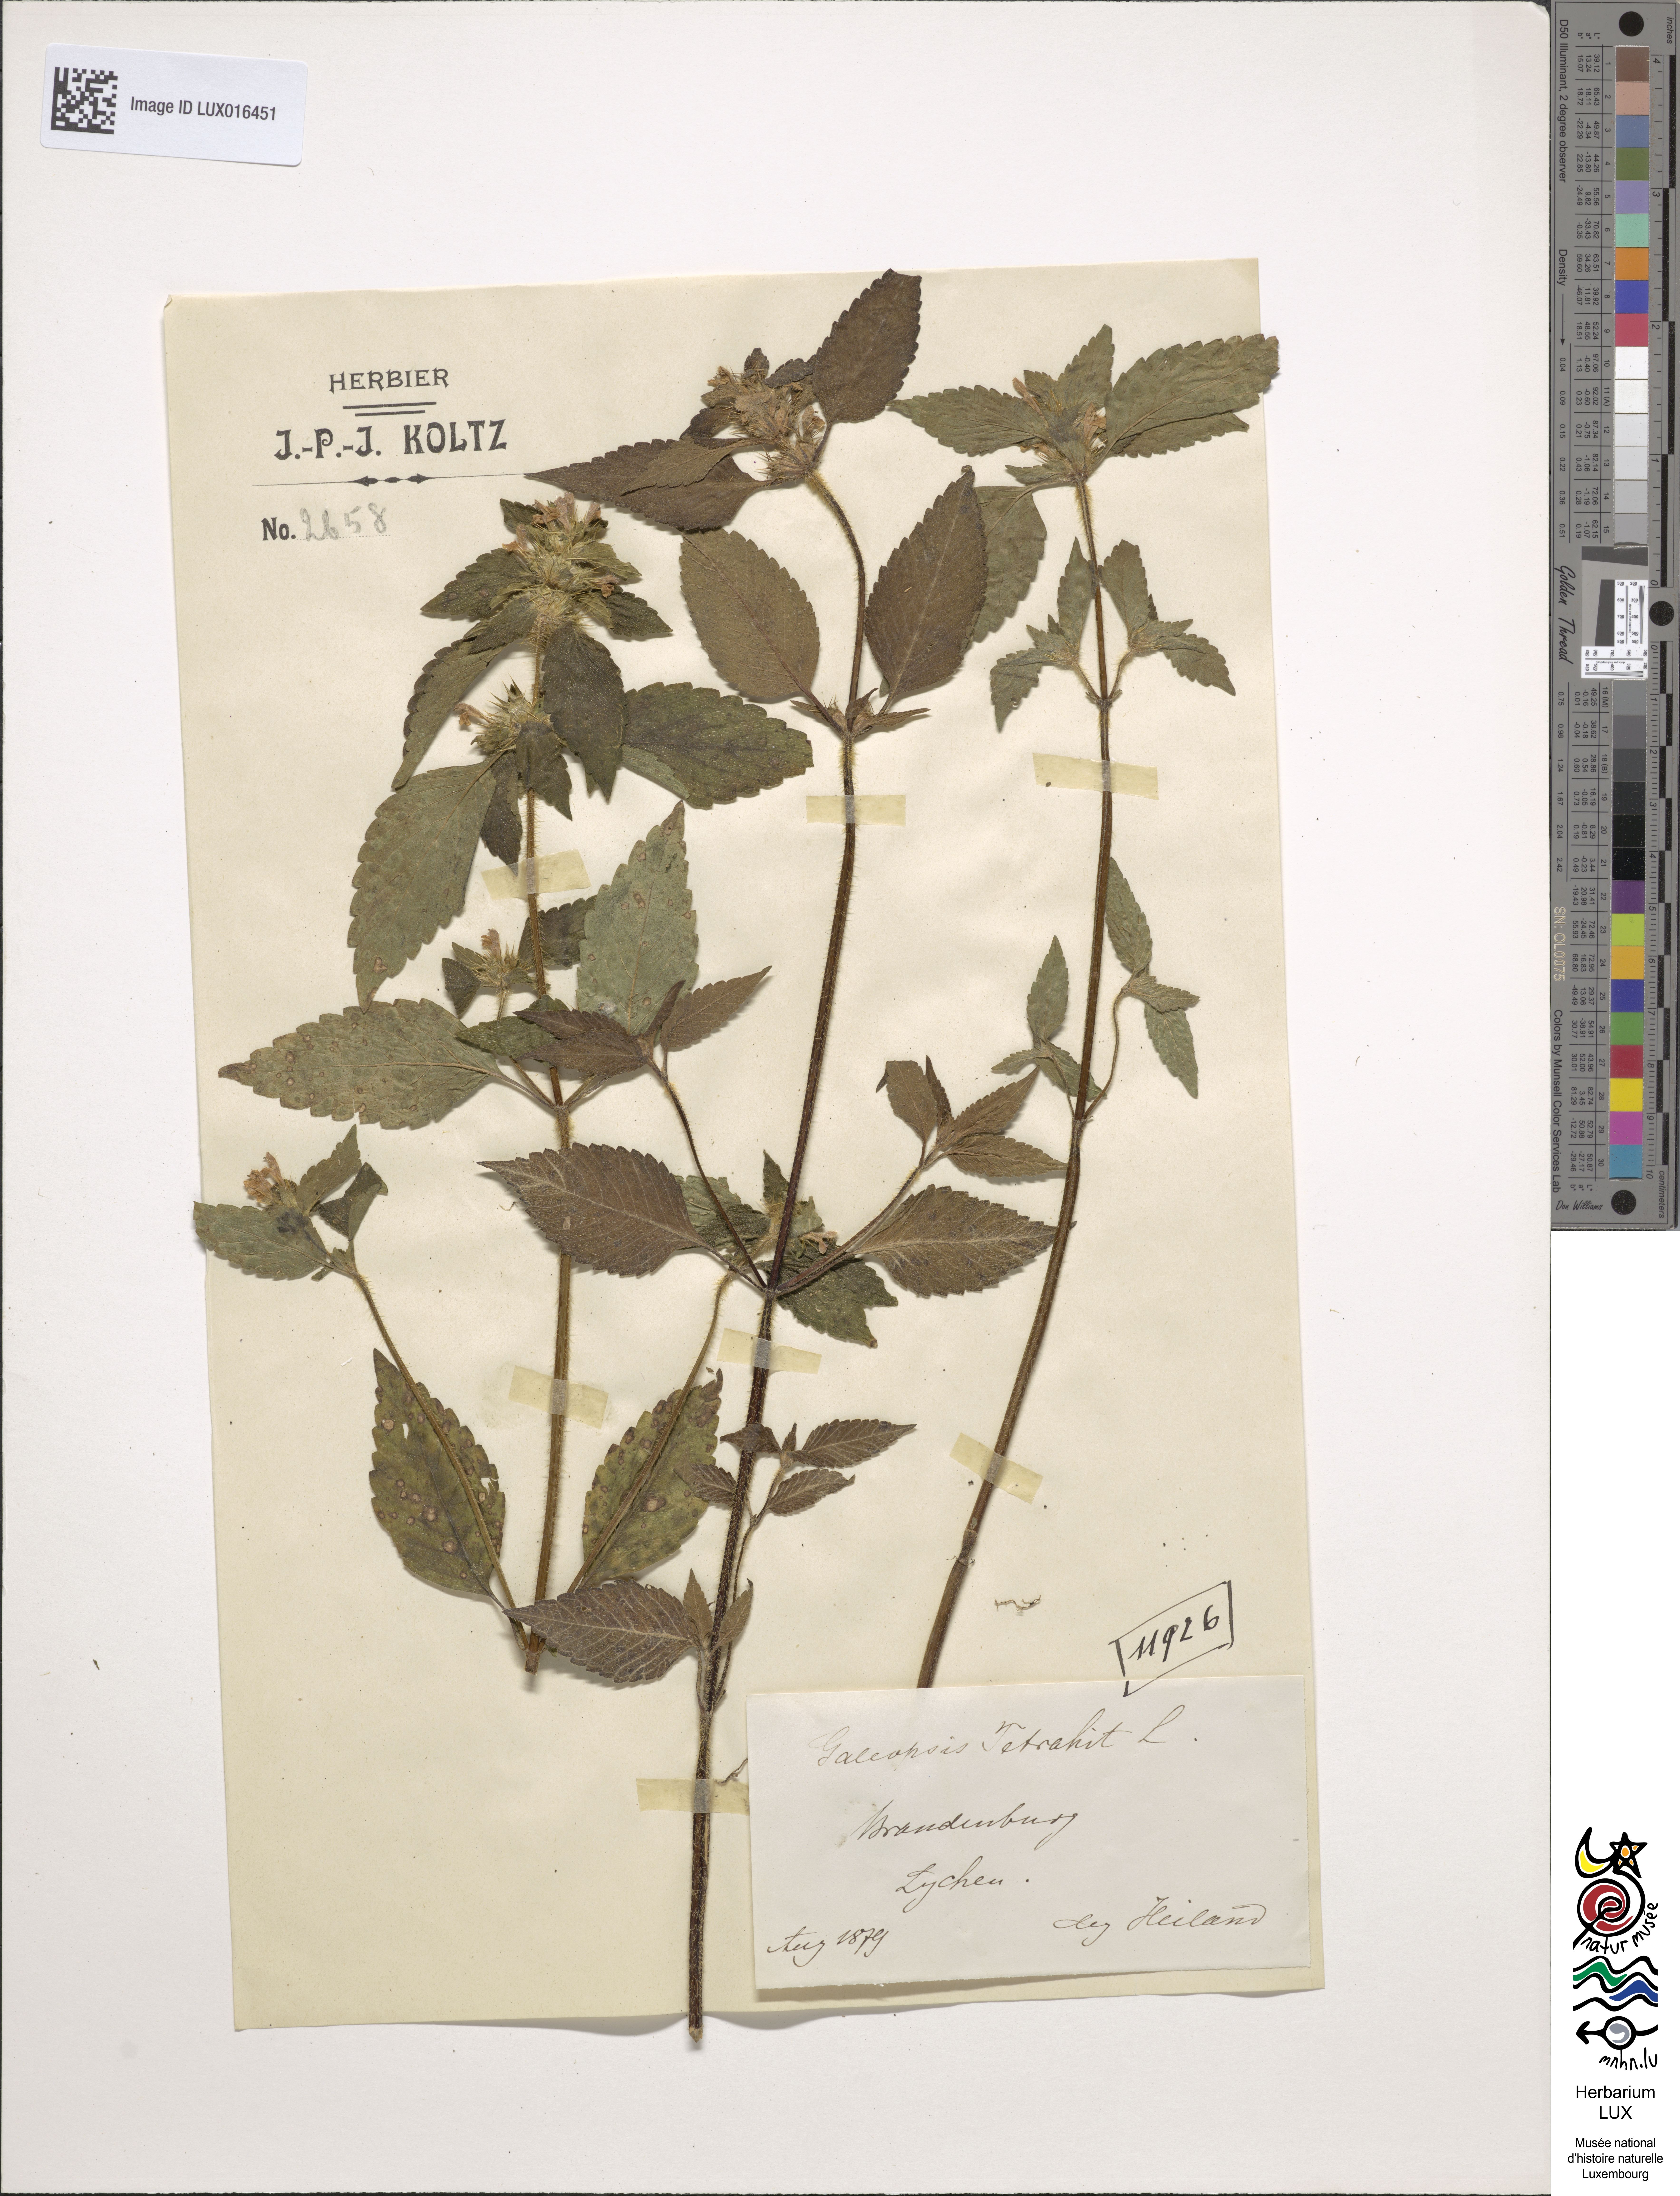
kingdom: Plantae
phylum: Tracheophyta
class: Magnoliopsida
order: Lamiales
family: Lamiaceae
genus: Galeopsis
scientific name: Galeopsis tetrahit
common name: Common hemp-nettle
